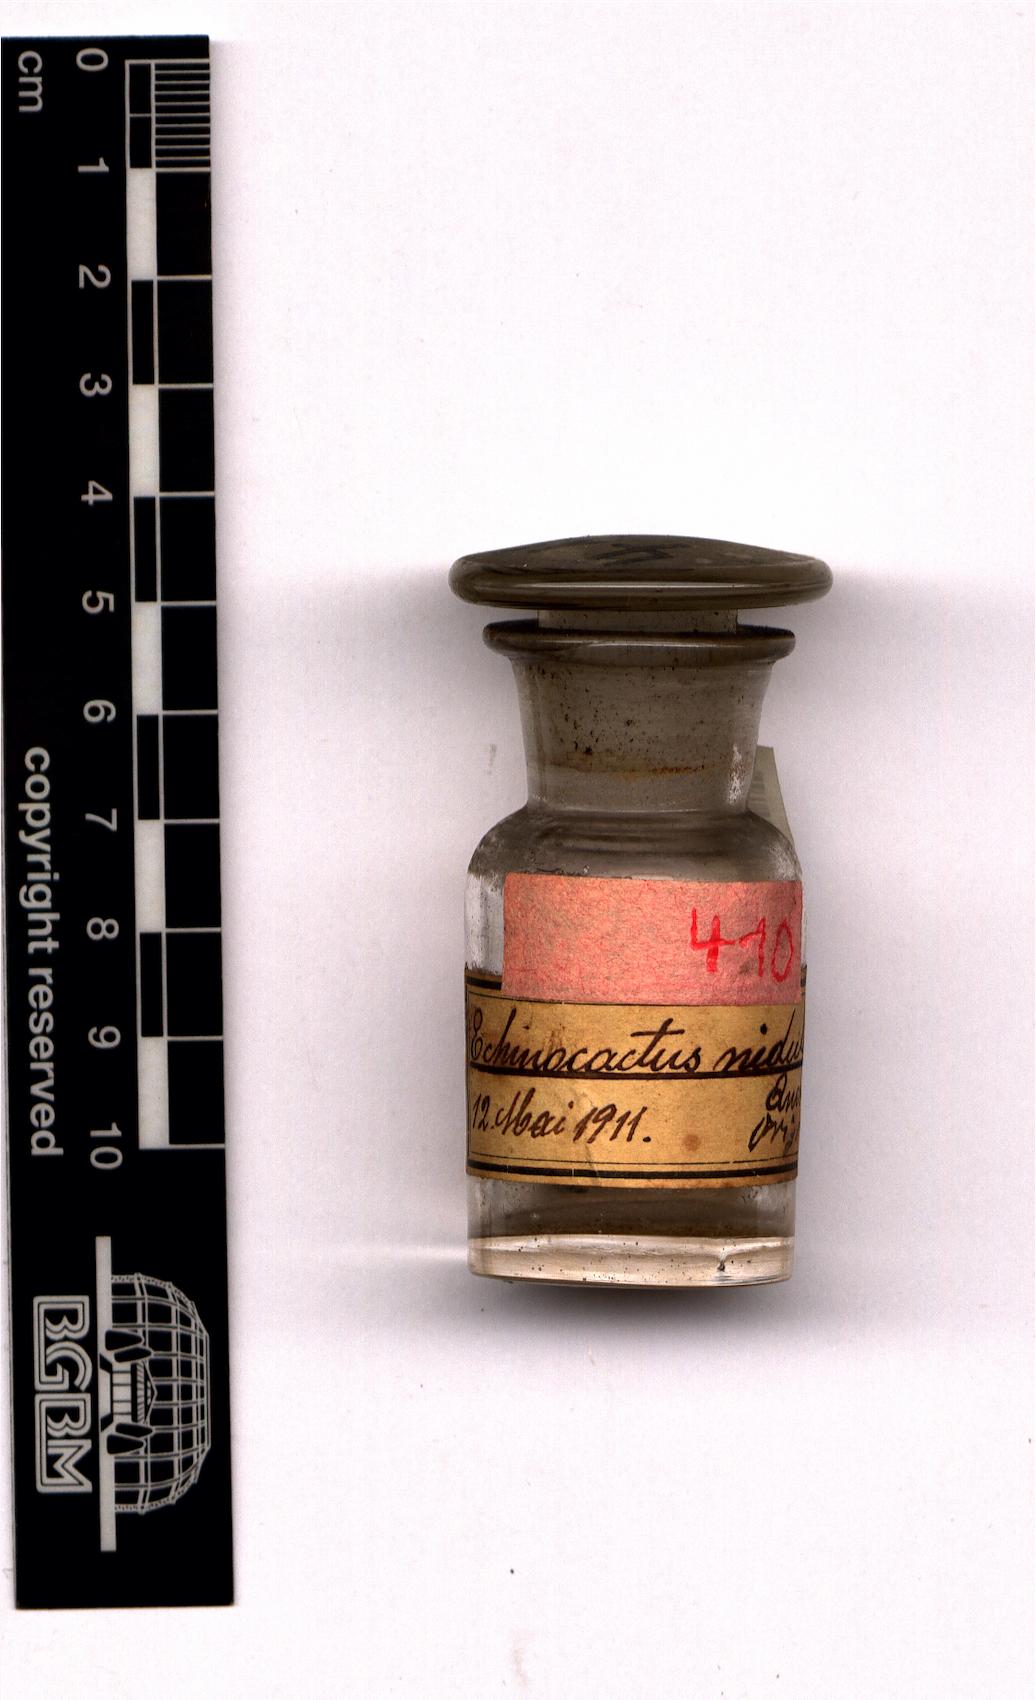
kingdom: Plantae
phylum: Tracheophyta
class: Magnoliopsida
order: Caryophyllales
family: Cactaceae
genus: Thelocactus
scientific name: Thelocactus rinconensis
